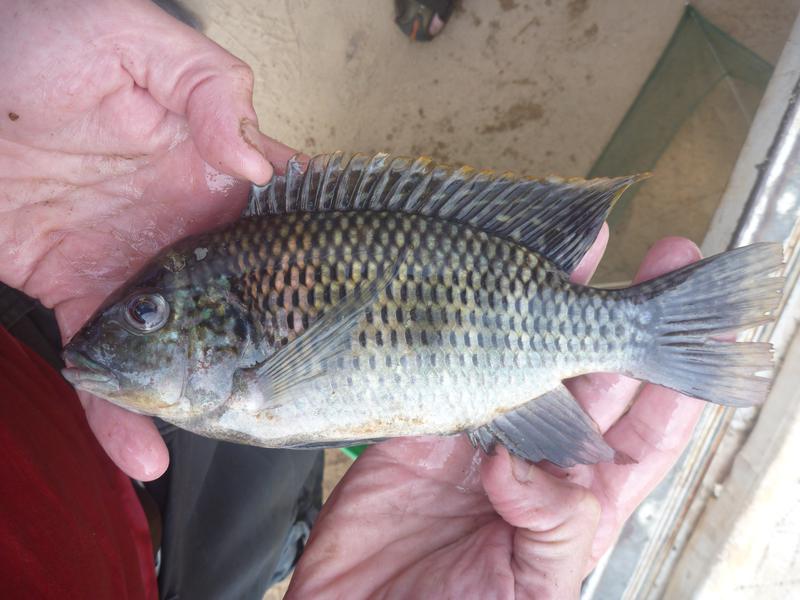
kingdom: Animalia
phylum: Chordata
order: Perciformes
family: Cichlidae
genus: Coptodon
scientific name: Coptodon zillii
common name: Redbelly tilapia
